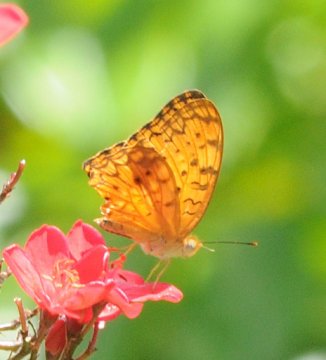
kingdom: Animalia
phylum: Arthropoda
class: Insecta
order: Lepidoptera
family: Nymphalidae
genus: Phalanta
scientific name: Phalanta phalantha
